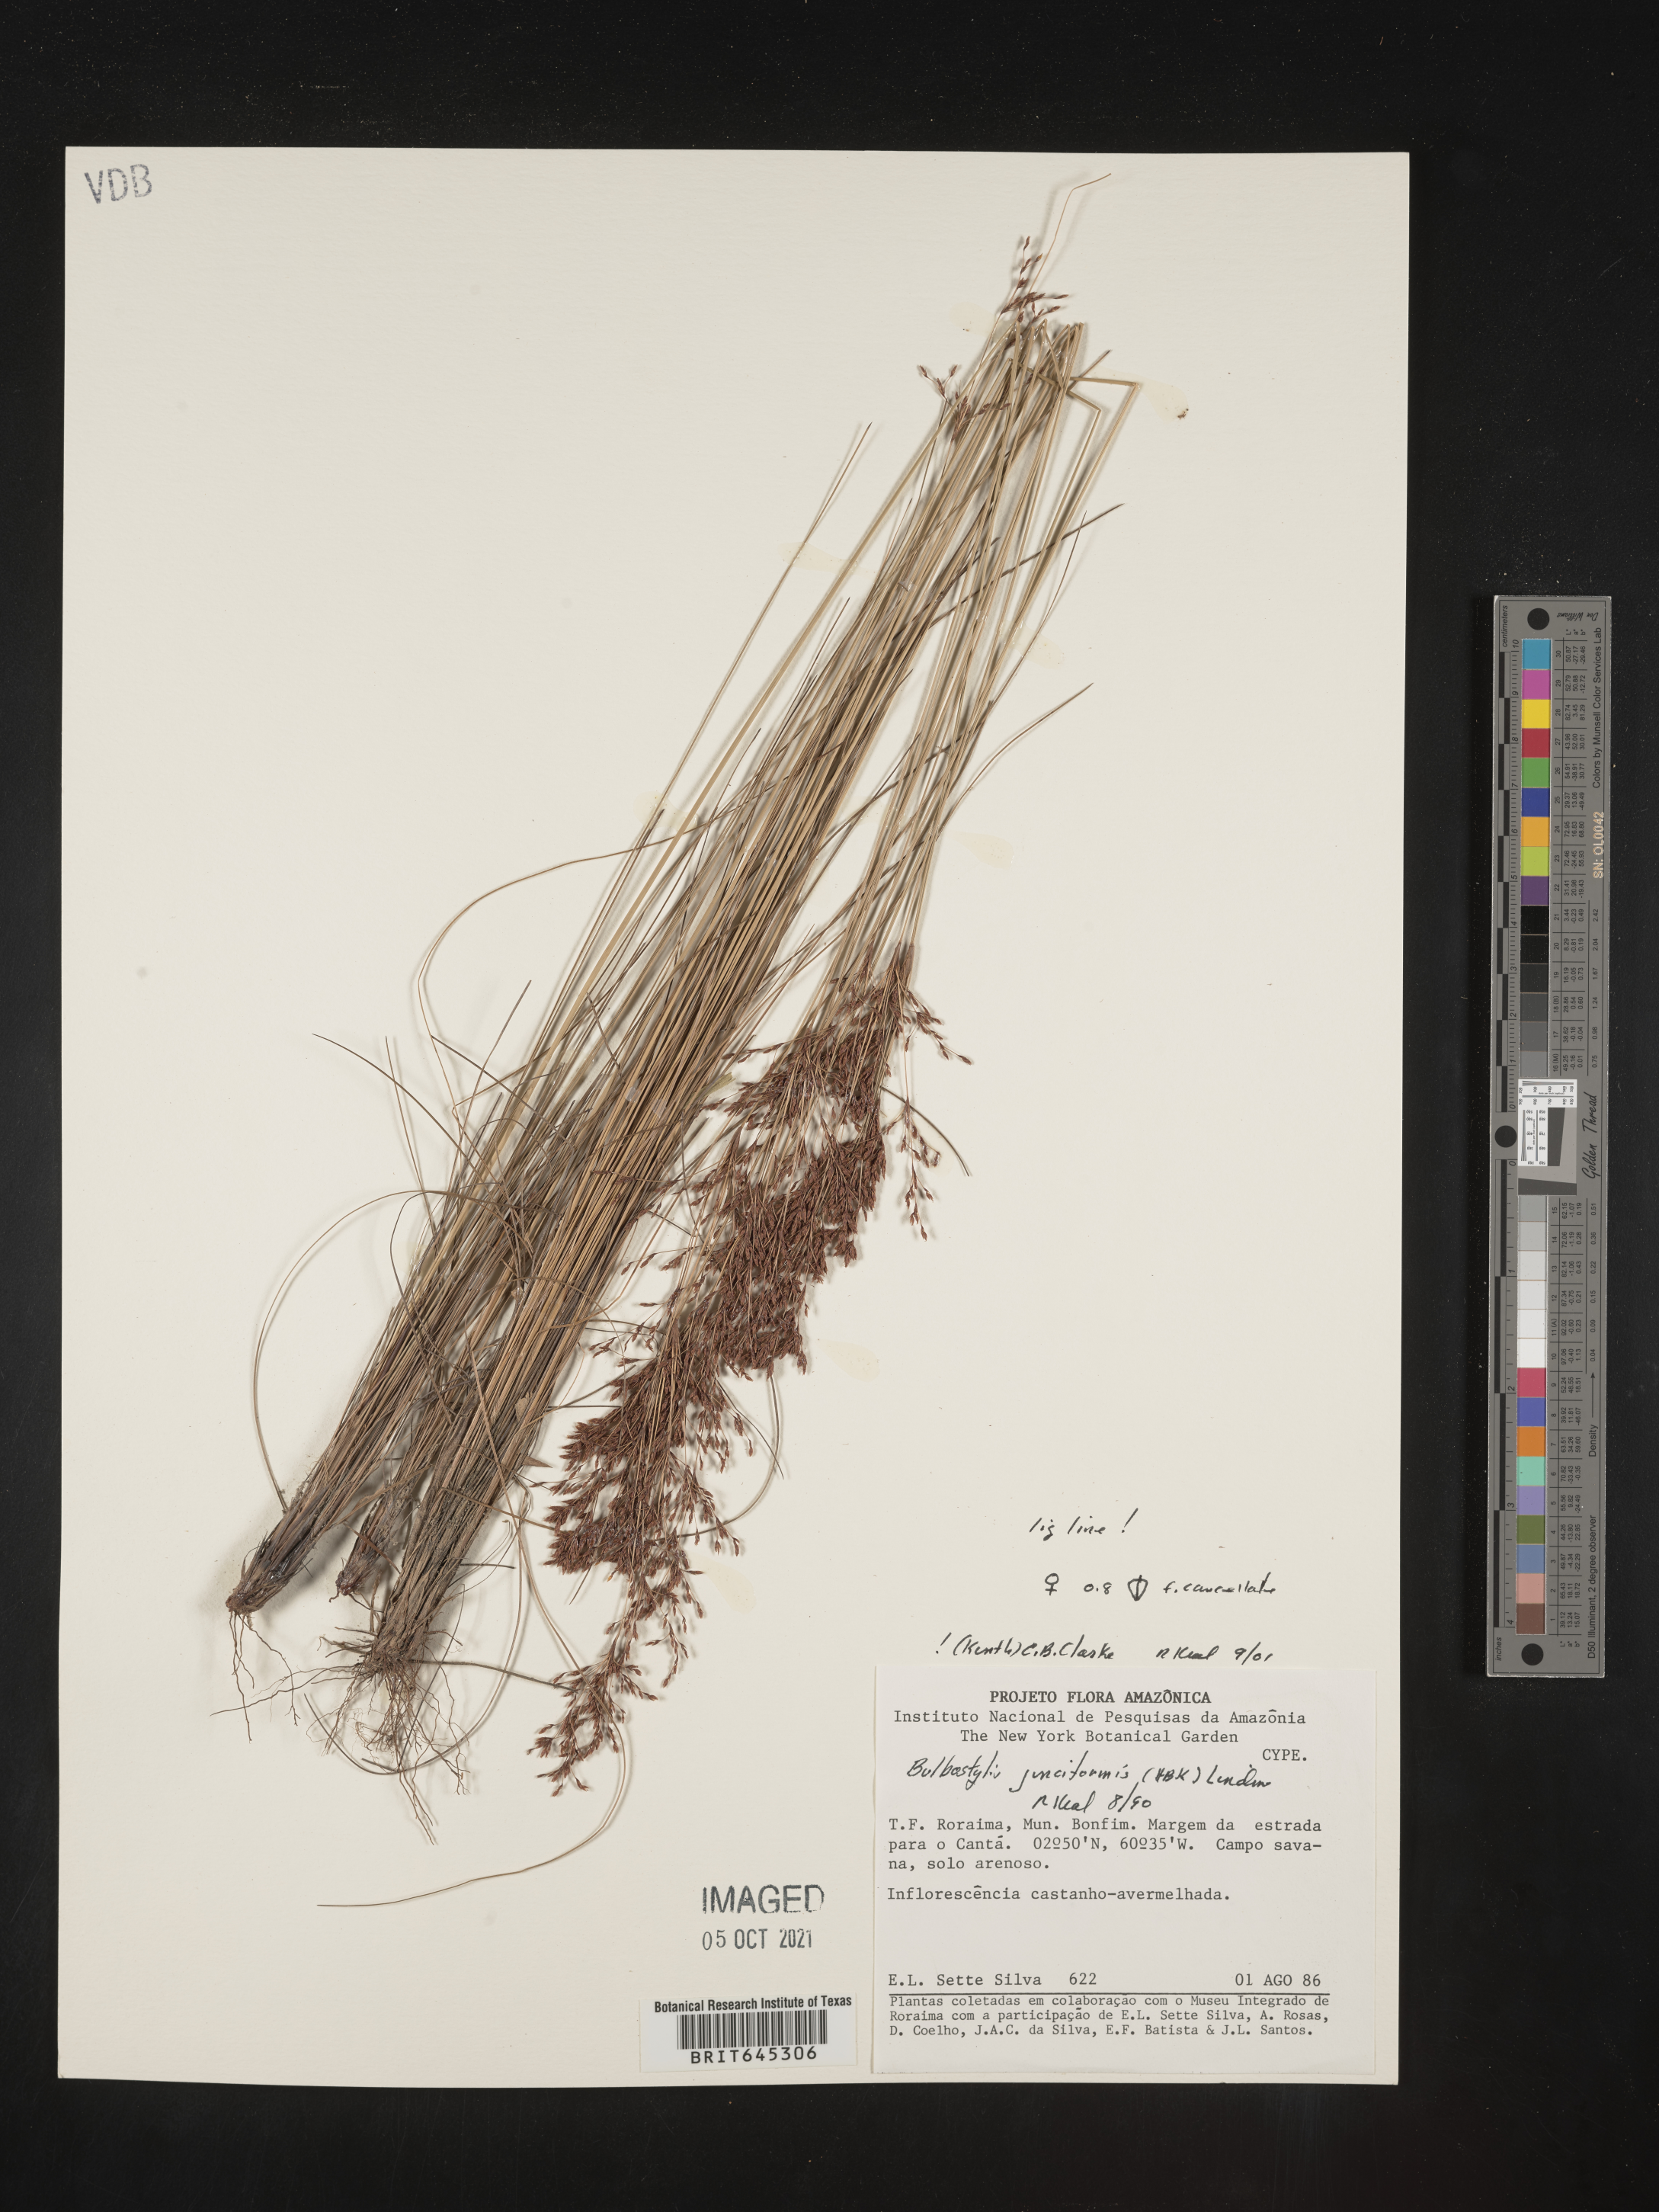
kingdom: Plantae
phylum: Tracheophyta
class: Liliopsida
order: Poales
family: Cyperaceae
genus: Bulbostylis
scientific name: Bulbostylis junciformis
